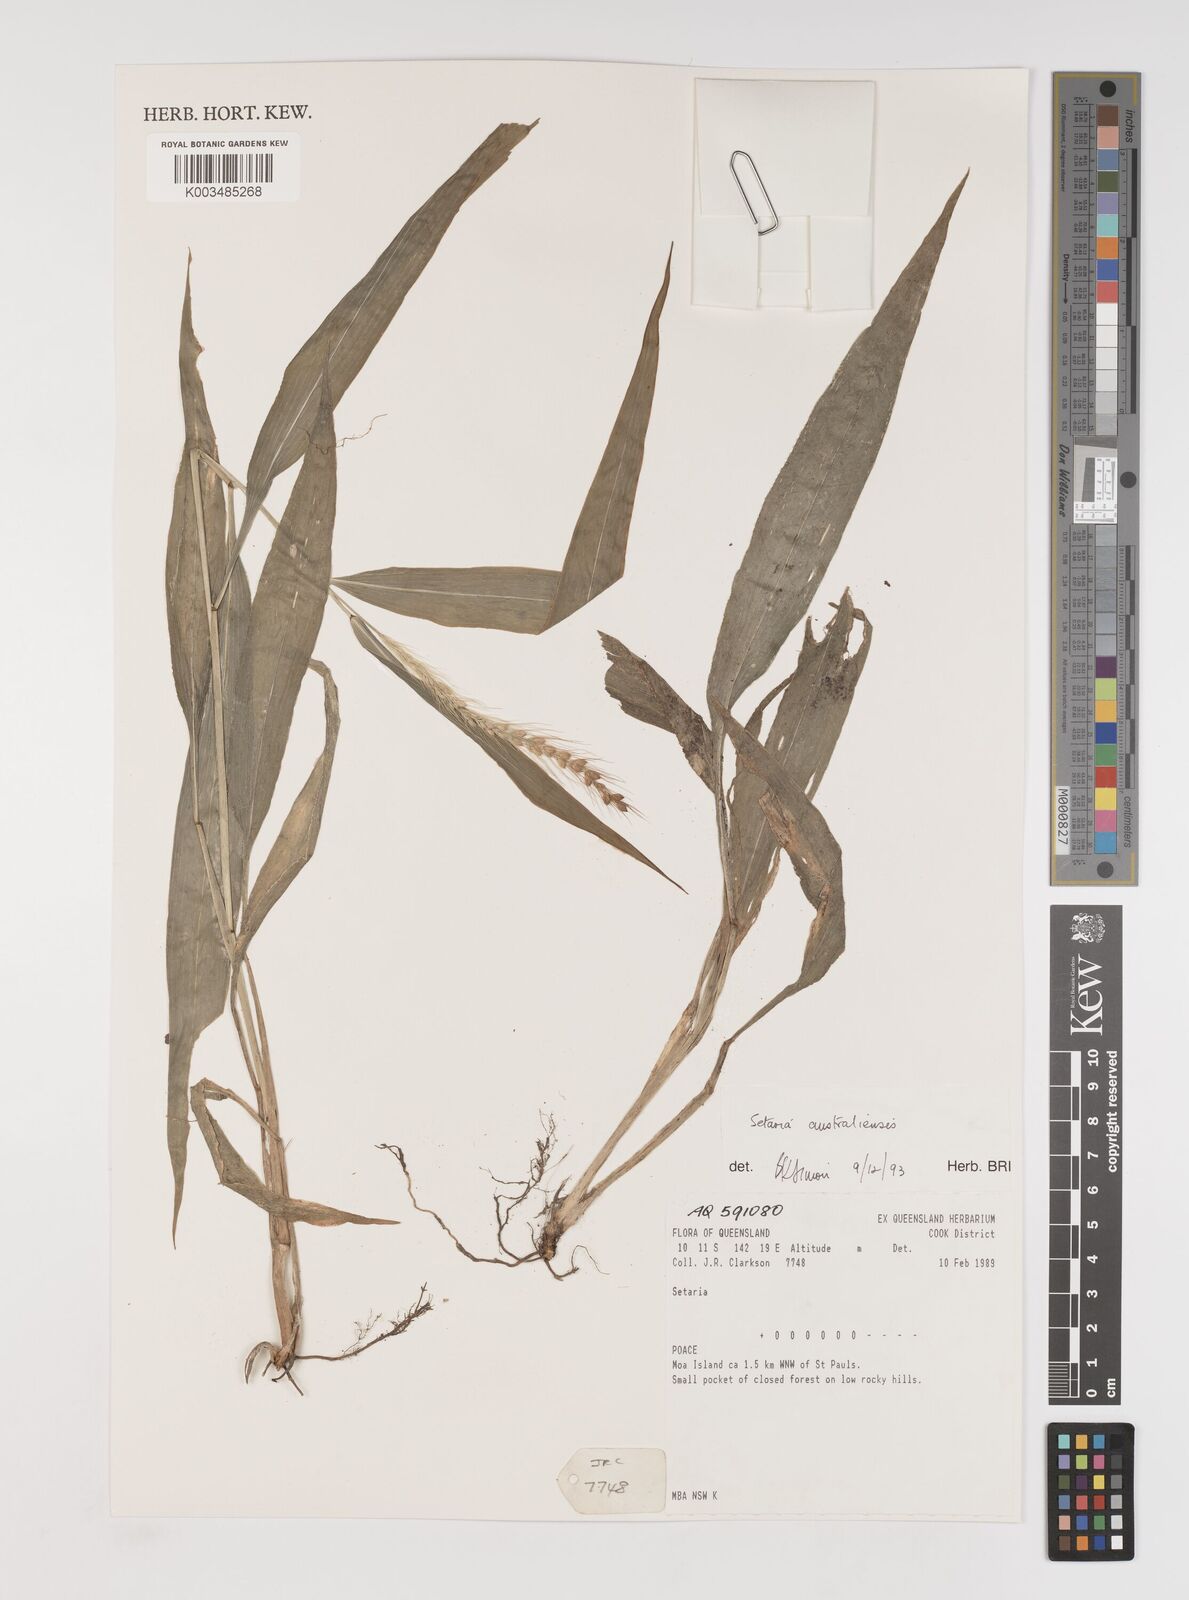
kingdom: Plantae
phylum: Tracheophyta
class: Liliopsida
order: Poales
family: Poaceae
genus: Setaria
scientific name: Setaria australiensis
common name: Scrub pigeon grass
